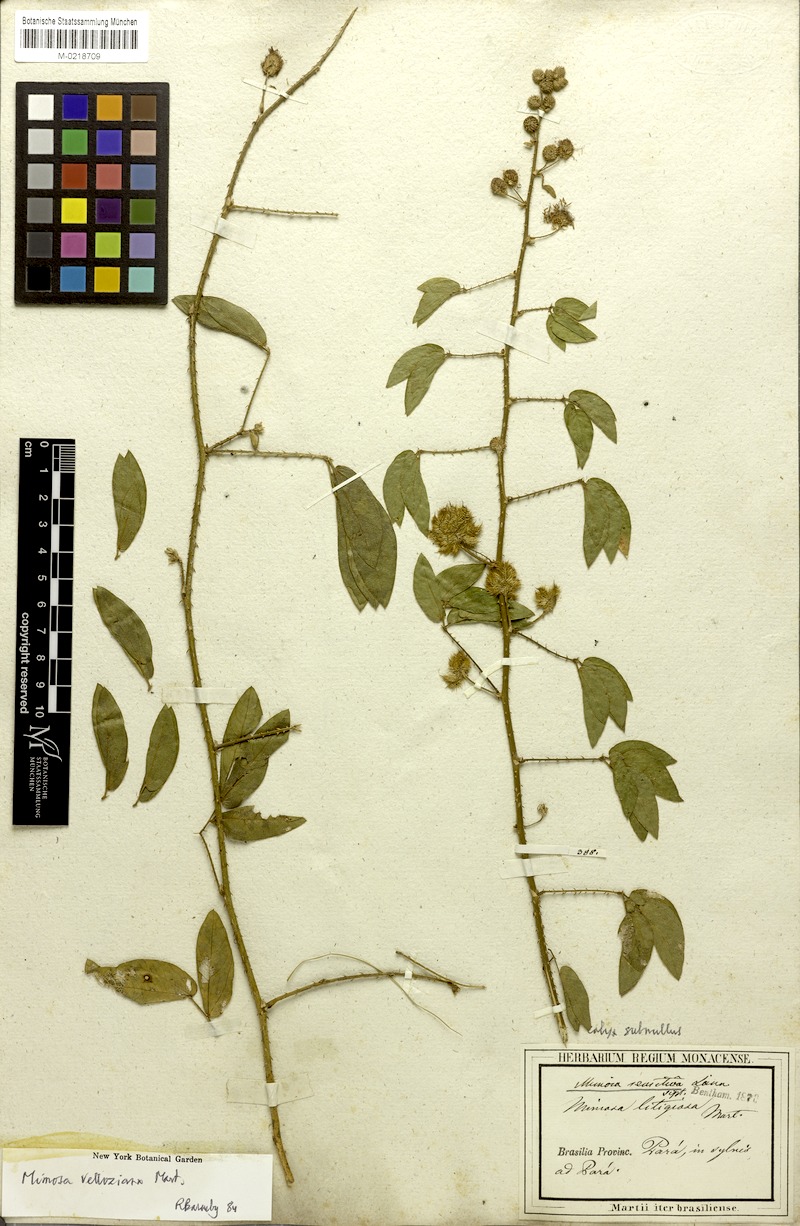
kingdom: Plantae
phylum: Tracheophyta
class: Magnoliopsida
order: Fabales
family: Fabaceae
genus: Mimosa
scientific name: Mimosa sensitiva
